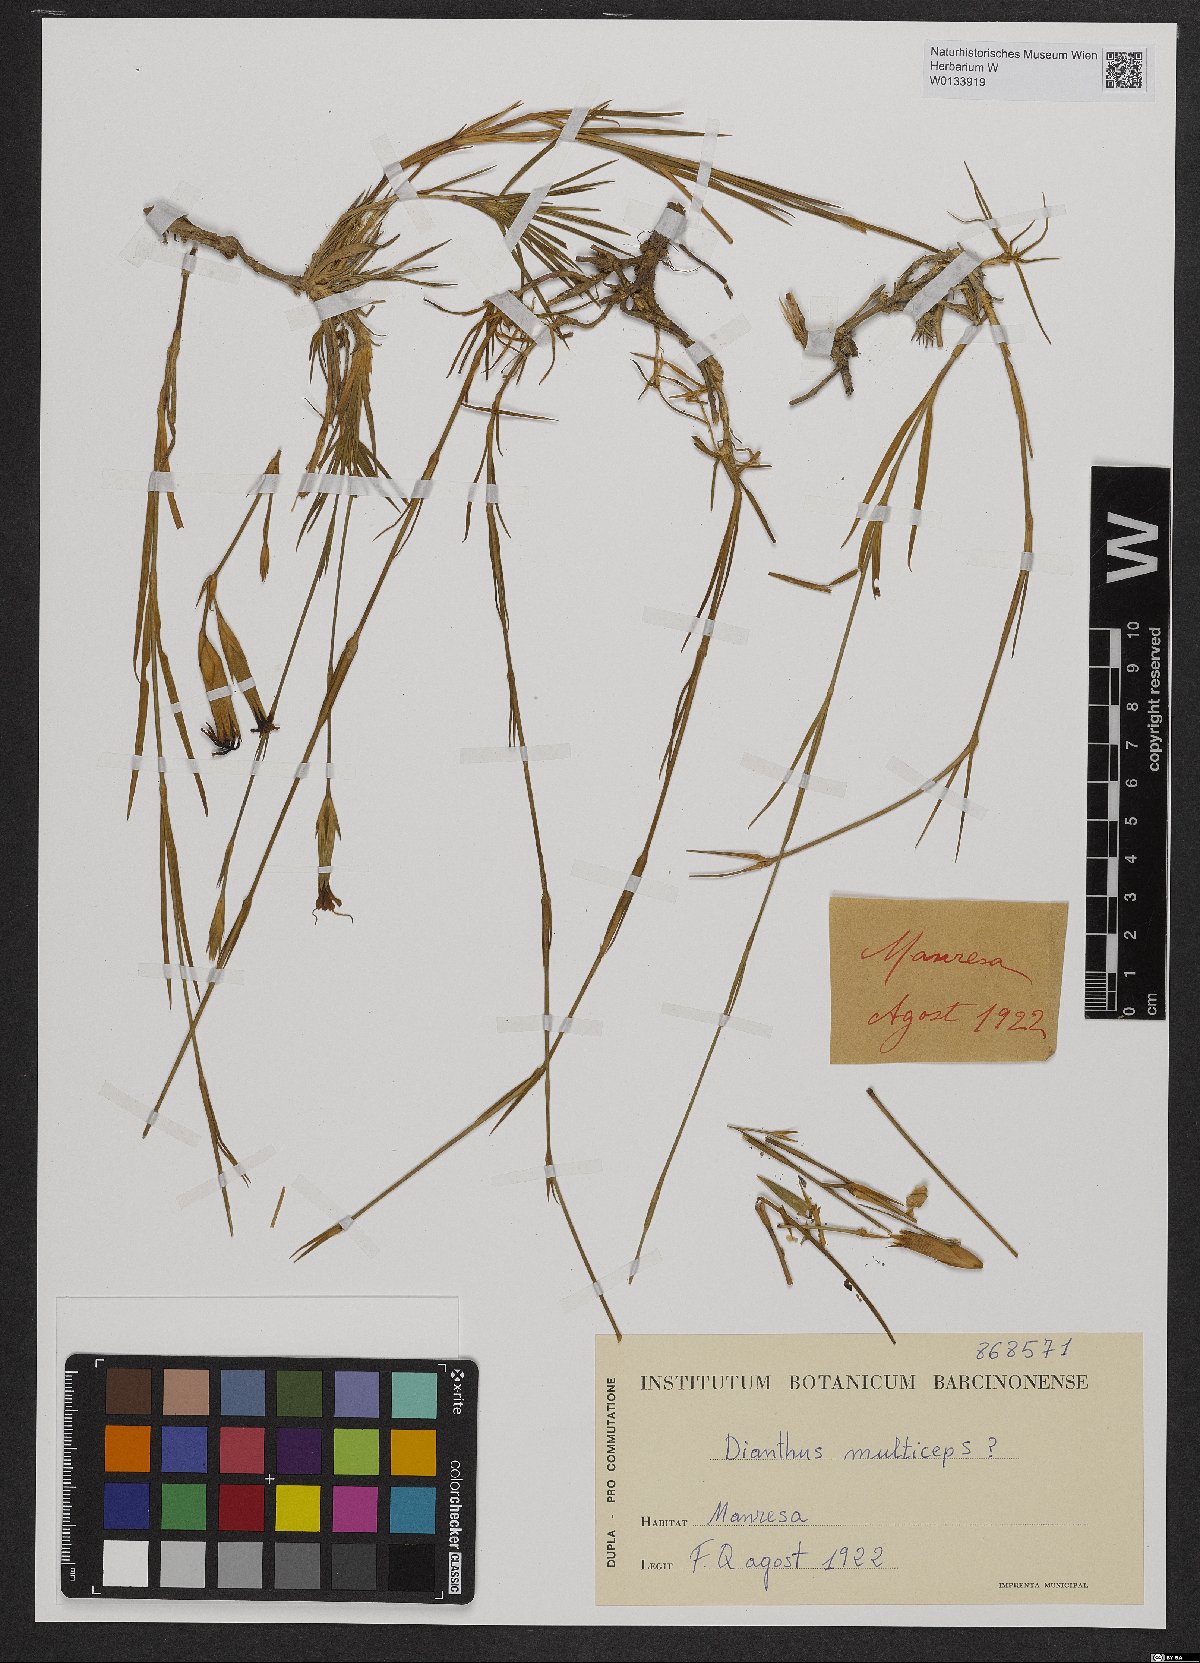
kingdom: Plantae
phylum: Tracheophyta
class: Magnoliopsida
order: Caryophyllales
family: Caryophyllaceae
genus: Dianthus
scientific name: Dianthus multiceps
